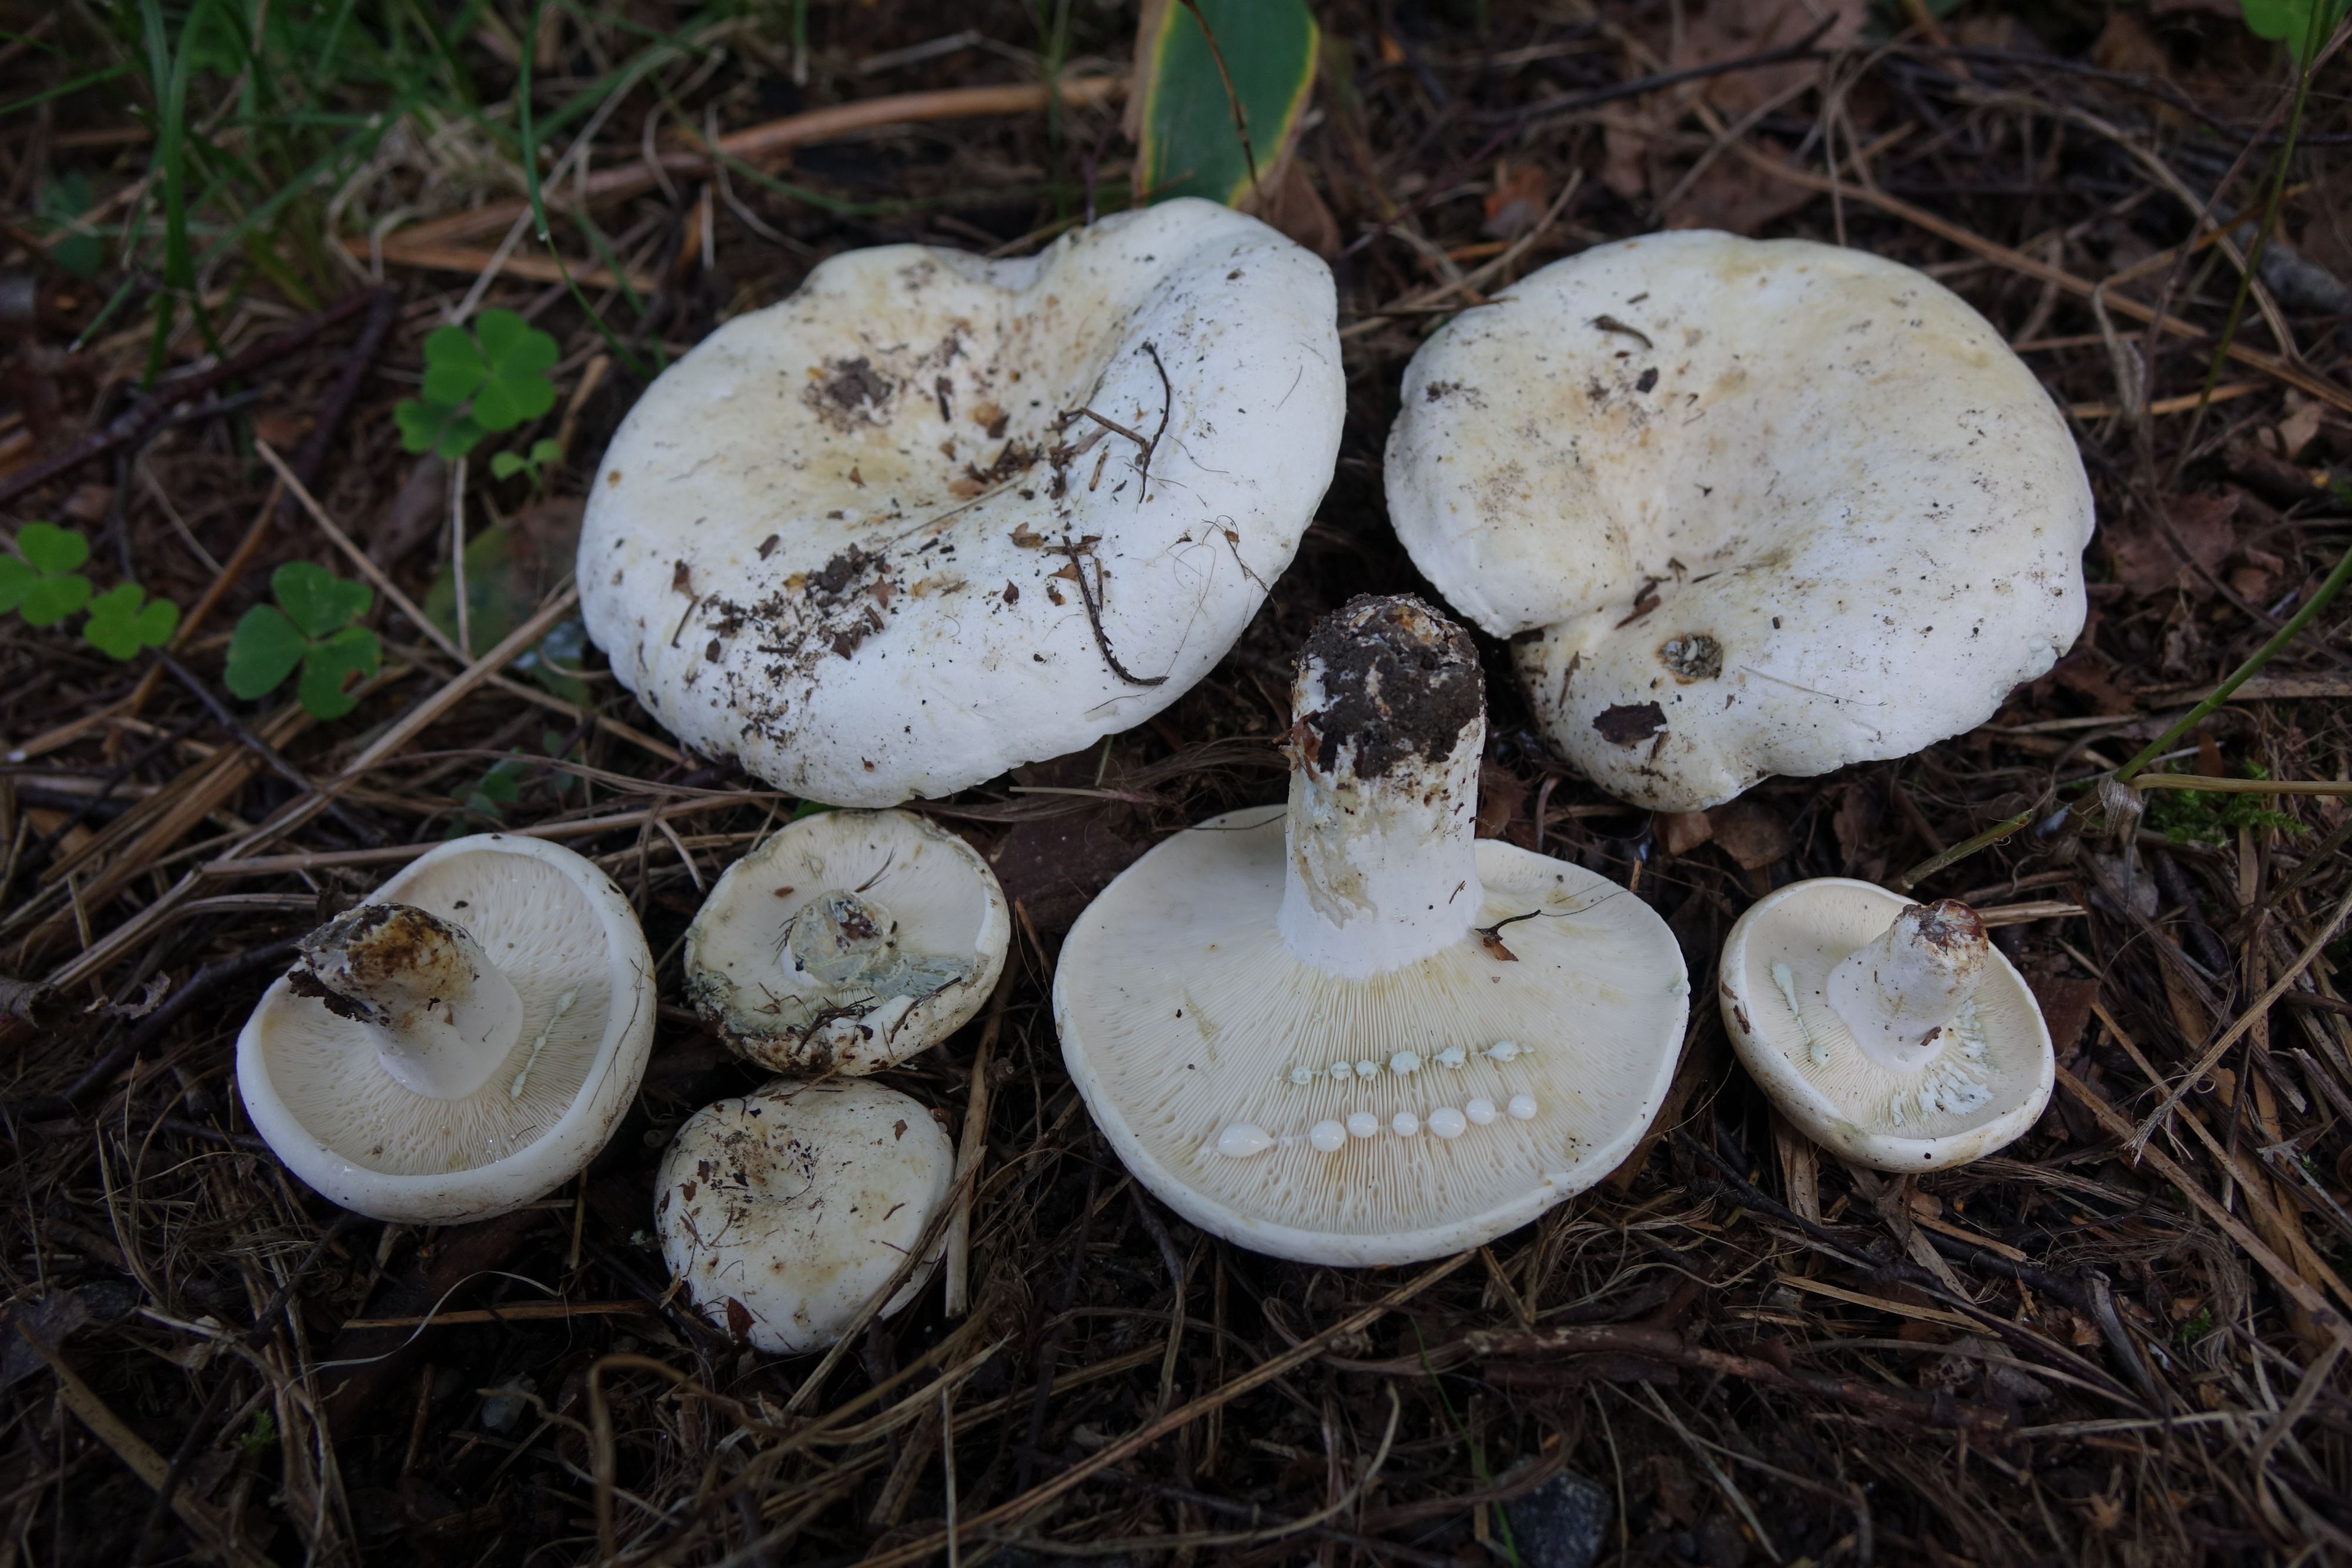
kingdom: Fungi
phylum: Basidiomycota
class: Agaricomycetes
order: Russulales
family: Russulaceae
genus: Lactifluus
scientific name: Lactifluus glaucescens
